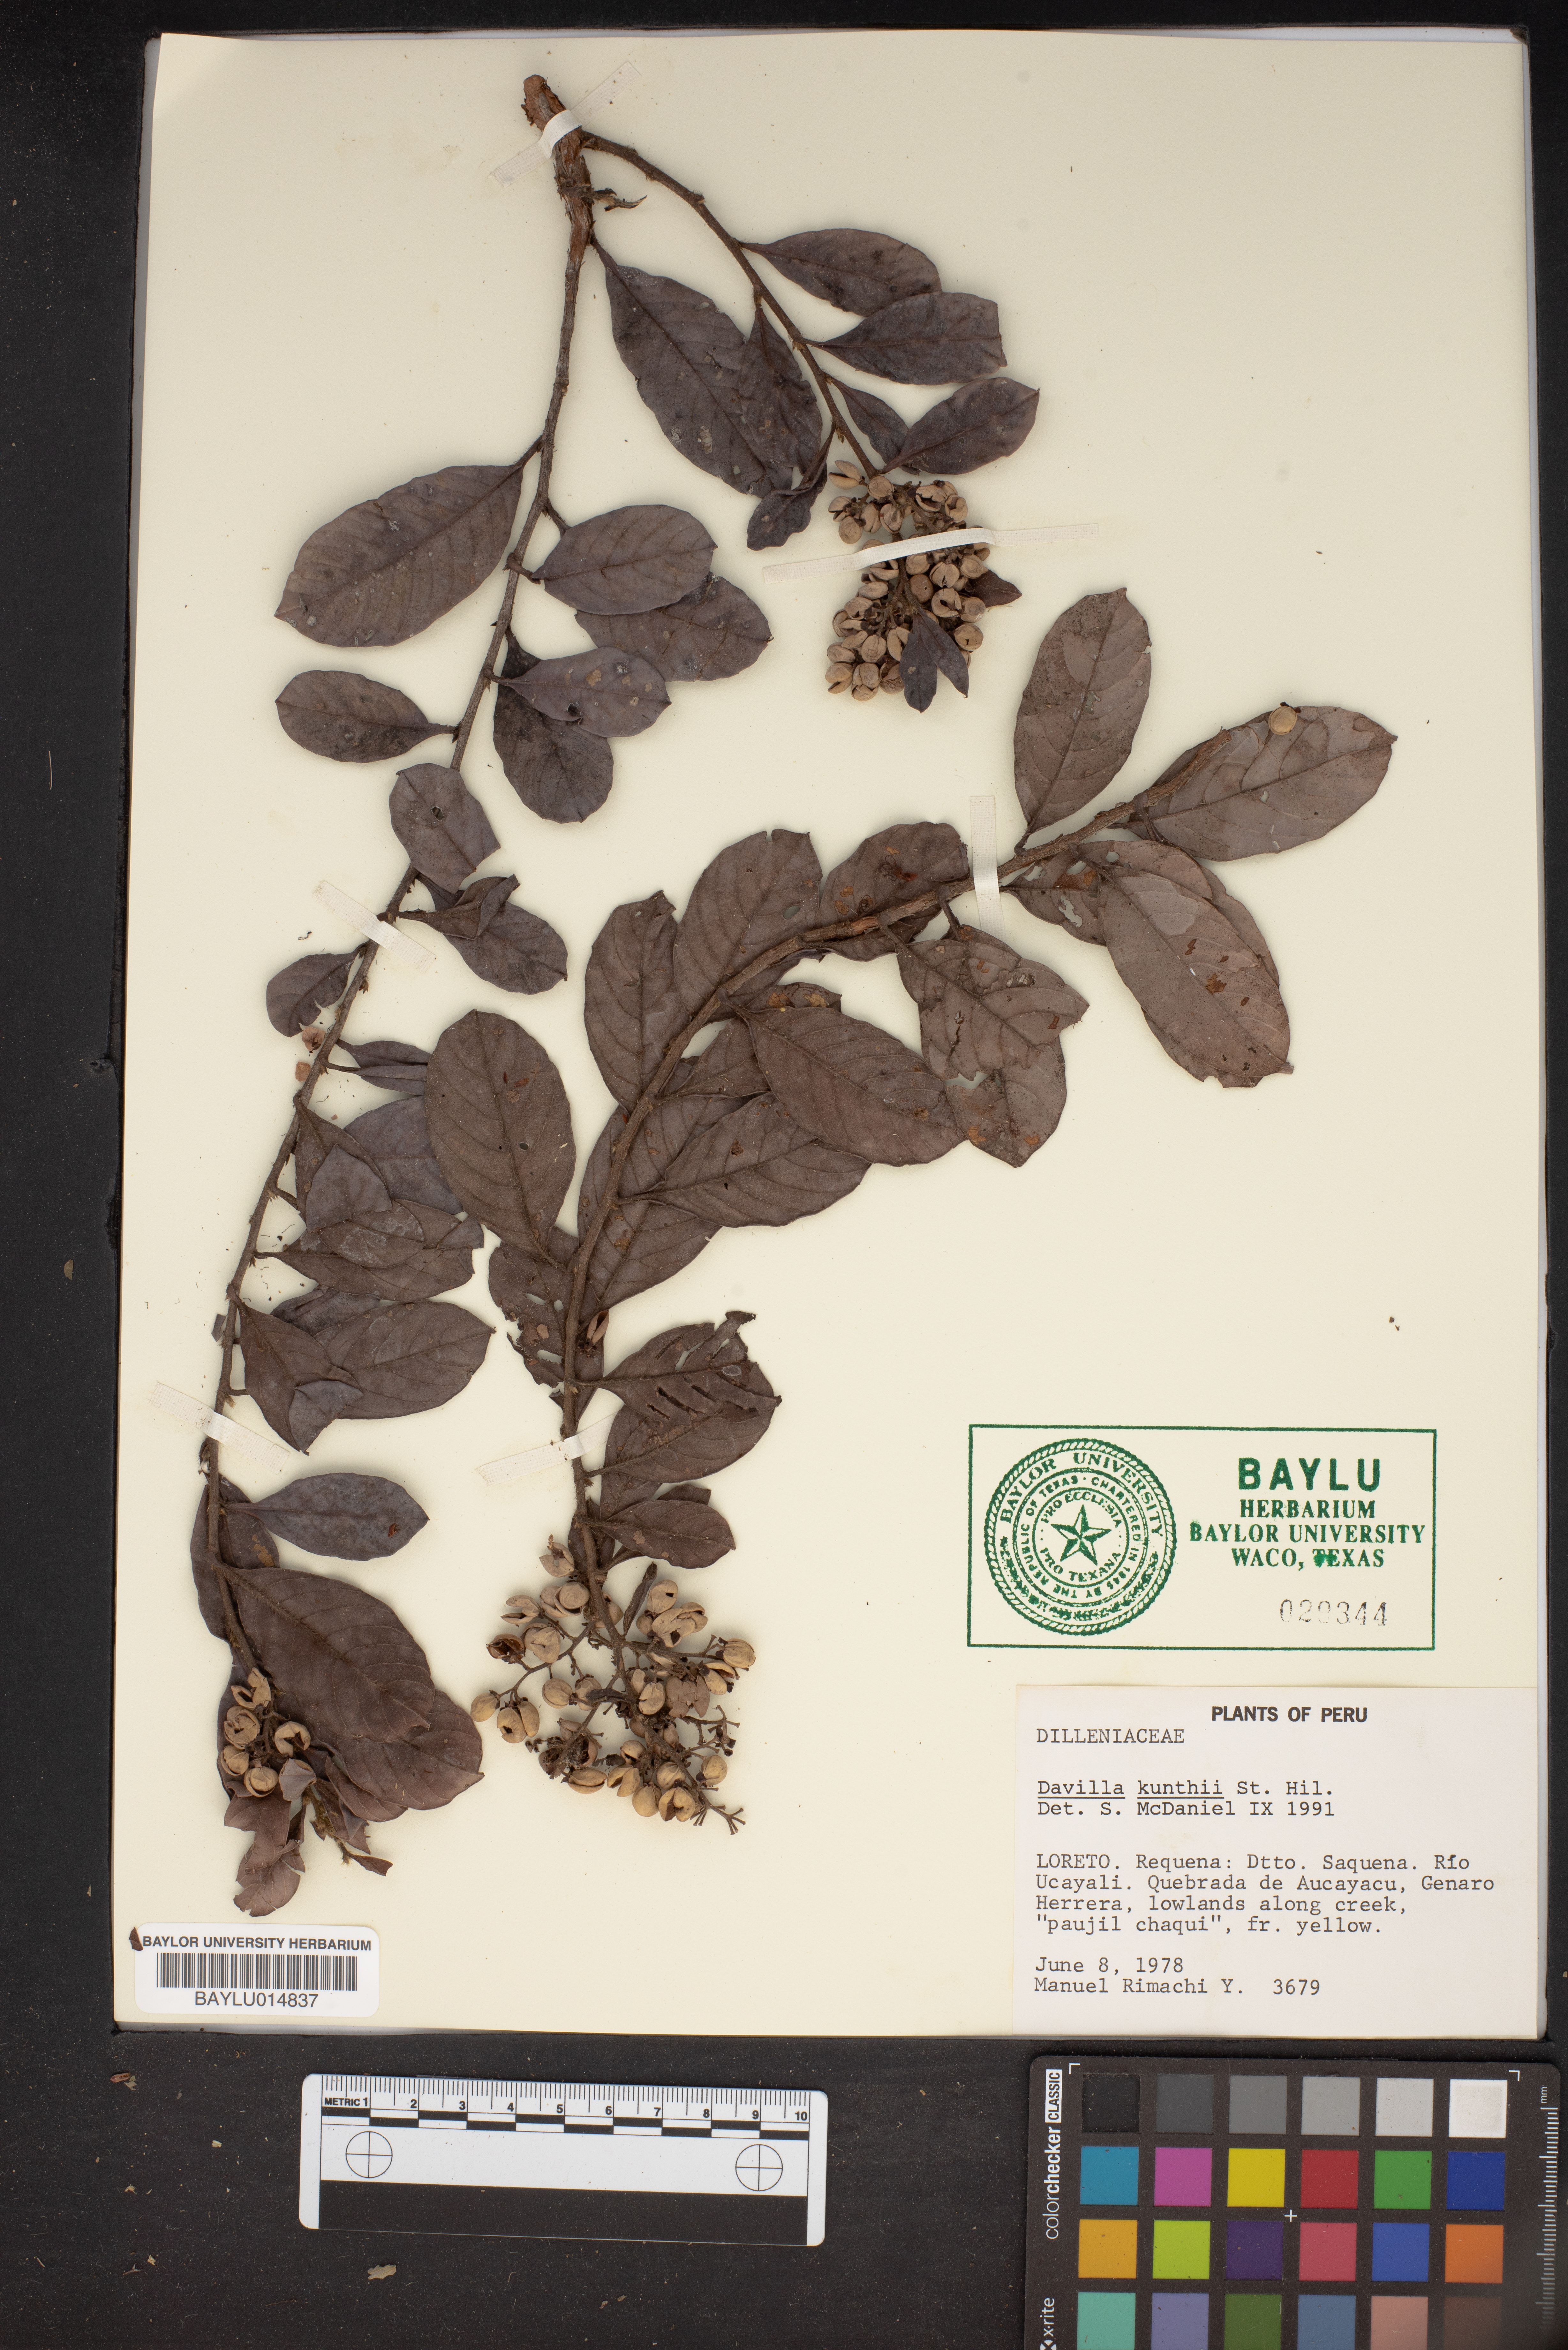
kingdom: Plantae
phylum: Tracheophyta
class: Magnoliopsida
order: Dilleniales
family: Dilleniaceae
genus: Davilla
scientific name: Davilla kunthii
